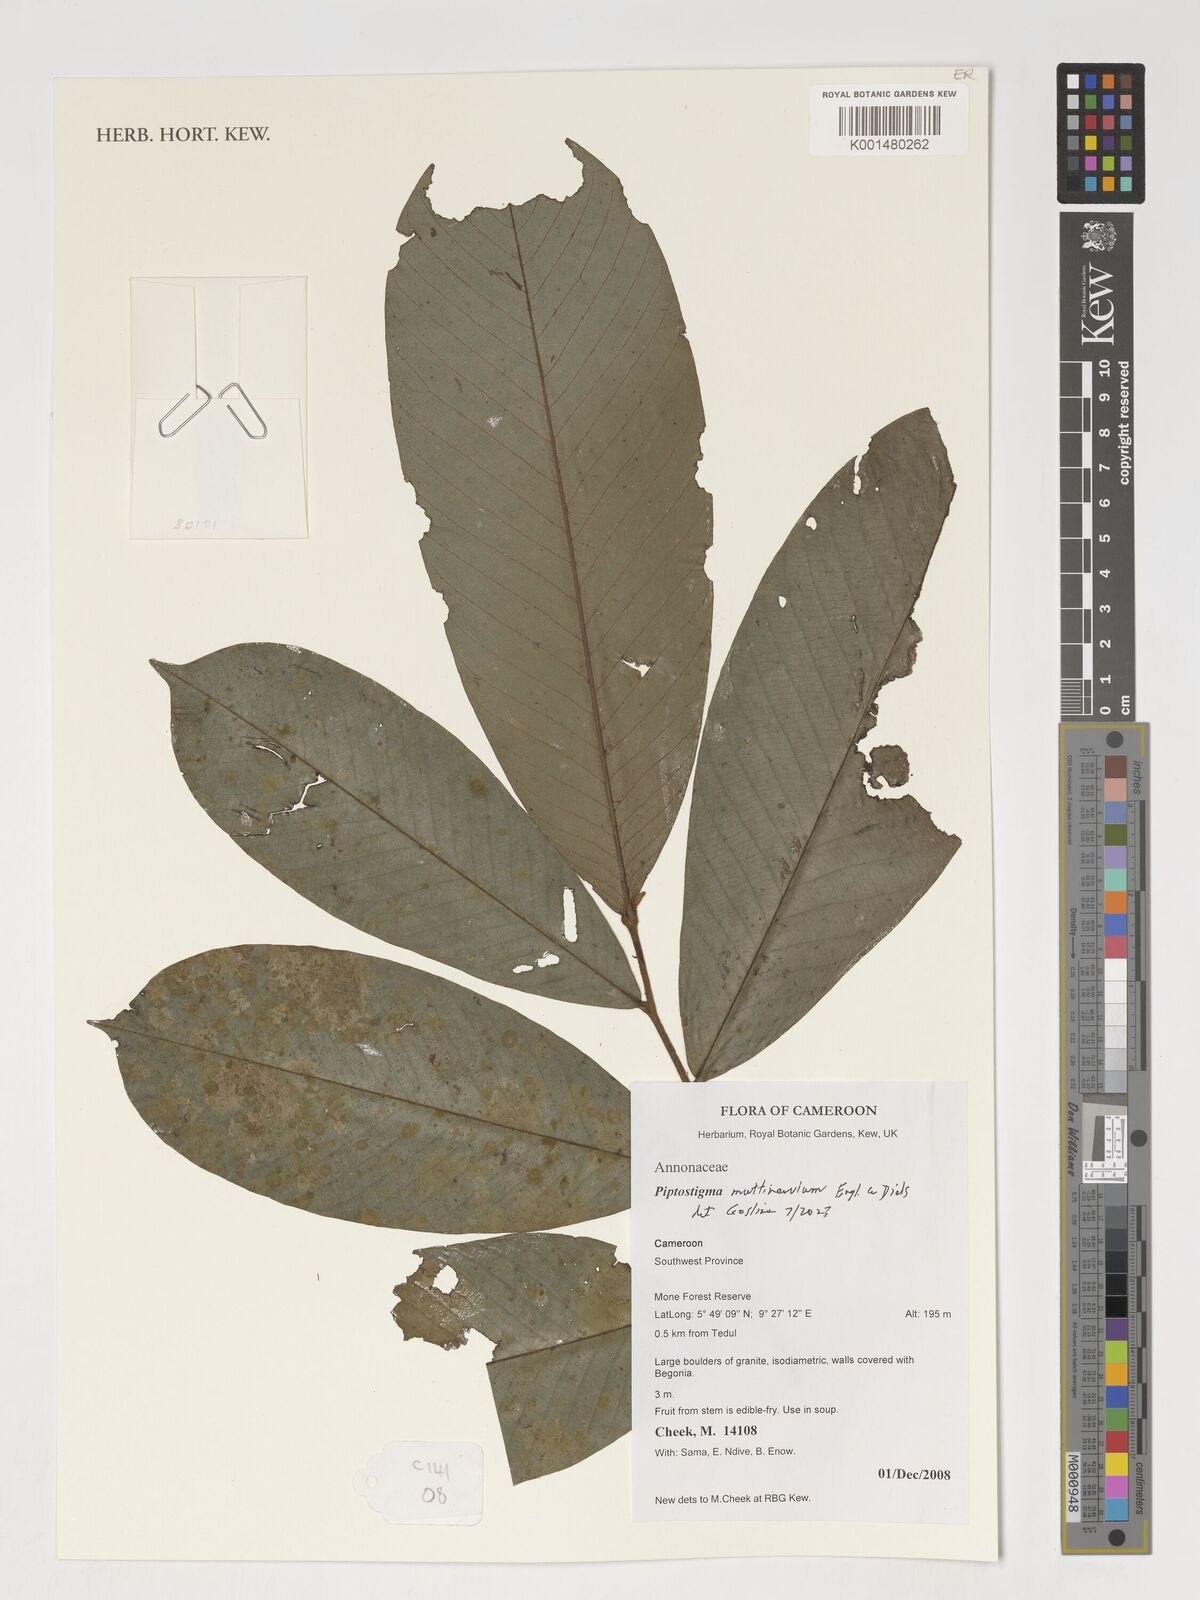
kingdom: Plantae
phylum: Tracheophyta
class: Magnoliopsida
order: Magnoliales
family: Annonaceae
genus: Piptostigma
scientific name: Piptostigma multinervium
